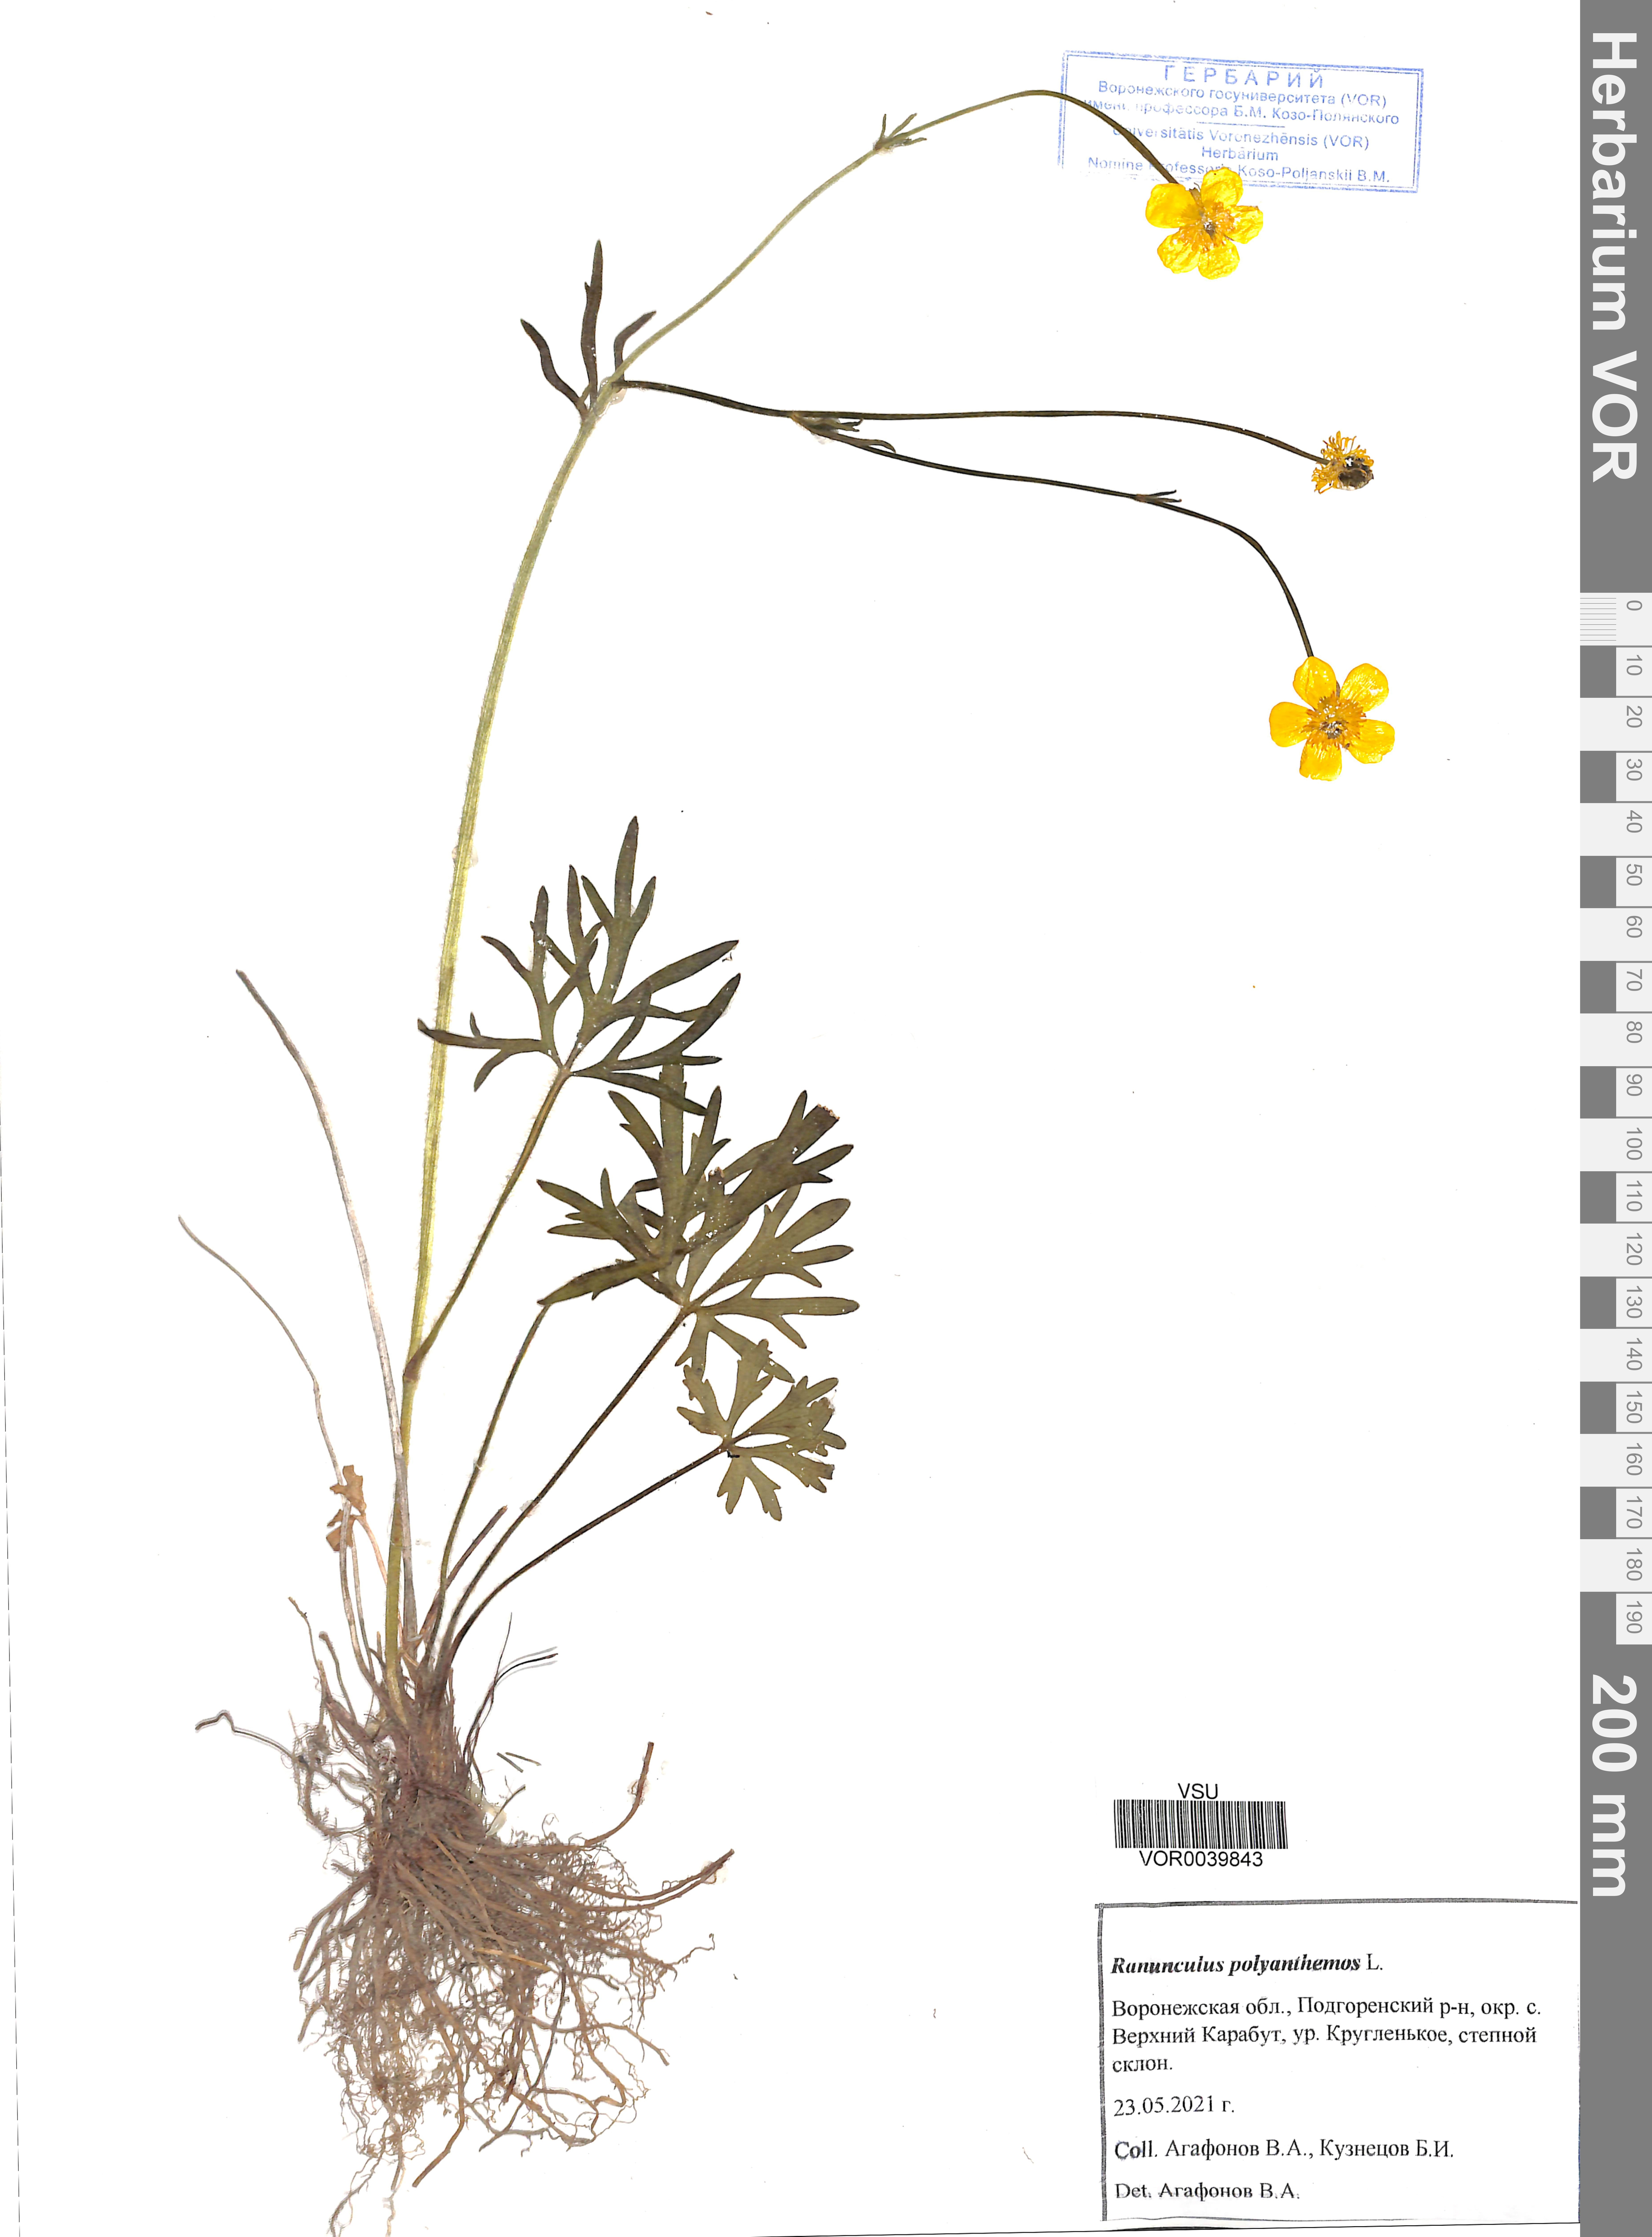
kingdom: Plantae
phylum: Tracheophyta
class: Magnoliopsida
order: Ranunculales
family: Ranunculaceae
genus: Ranunculus
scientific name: Ranunculus polyanthemos
